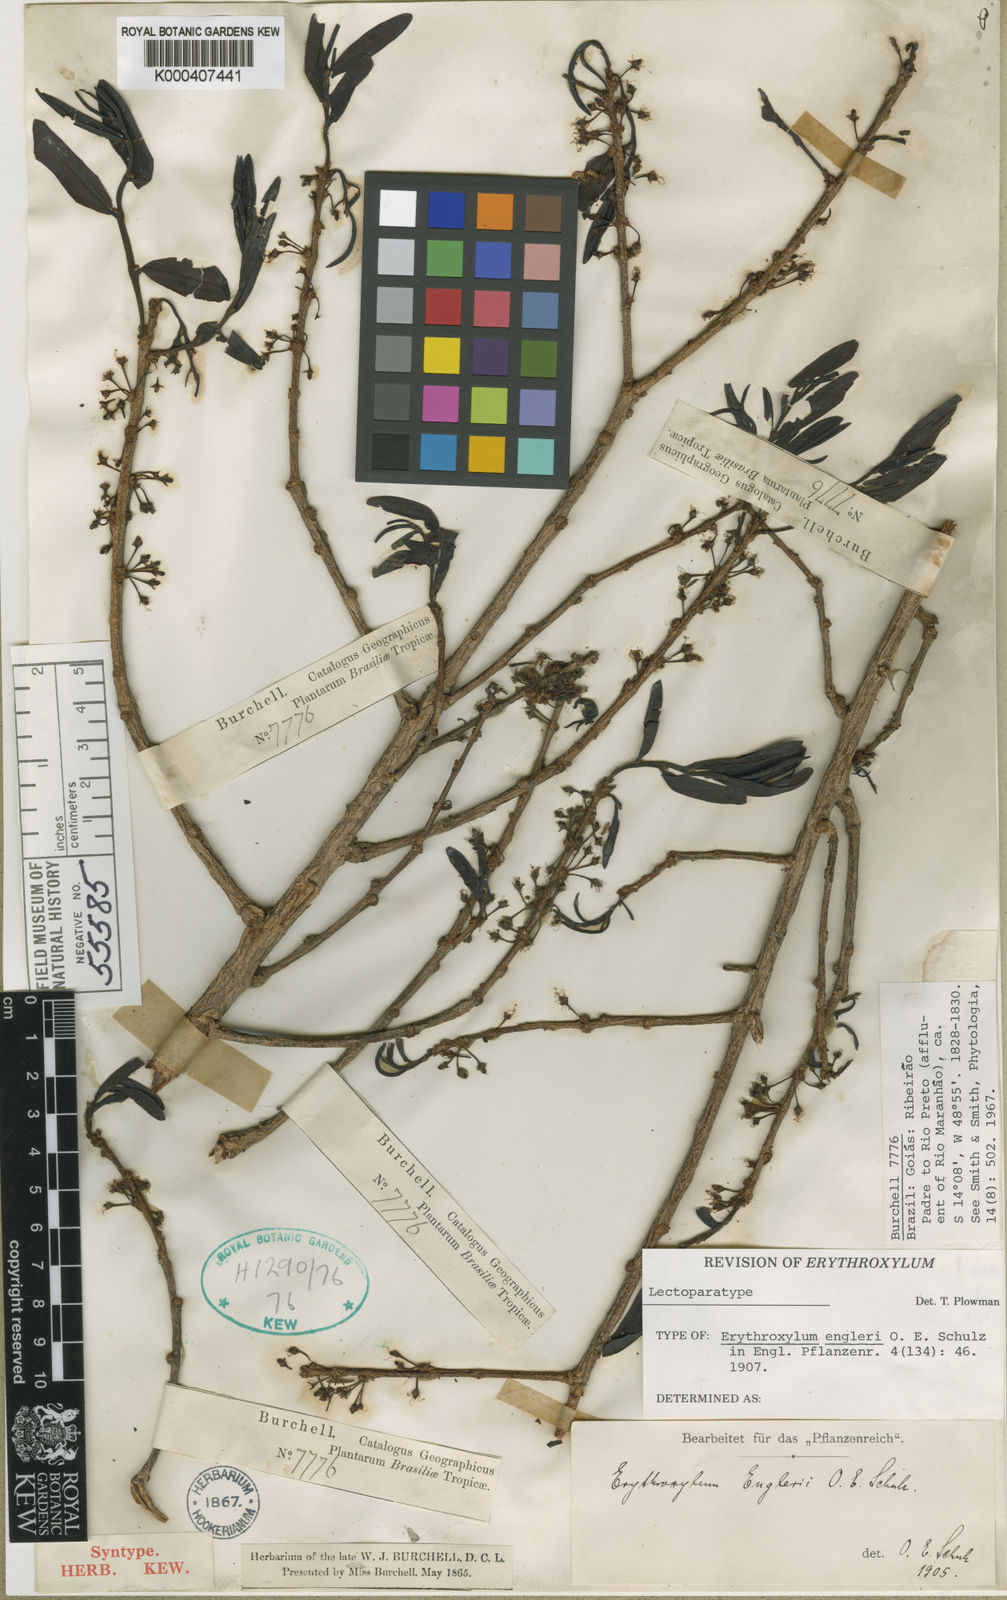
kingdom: Plantae
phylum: Tracheophyta
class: Magnoliopsida
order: Malpighiales
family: Erythroxylaceae
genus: Erythroxylum
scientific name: Erythroxylum engleri
